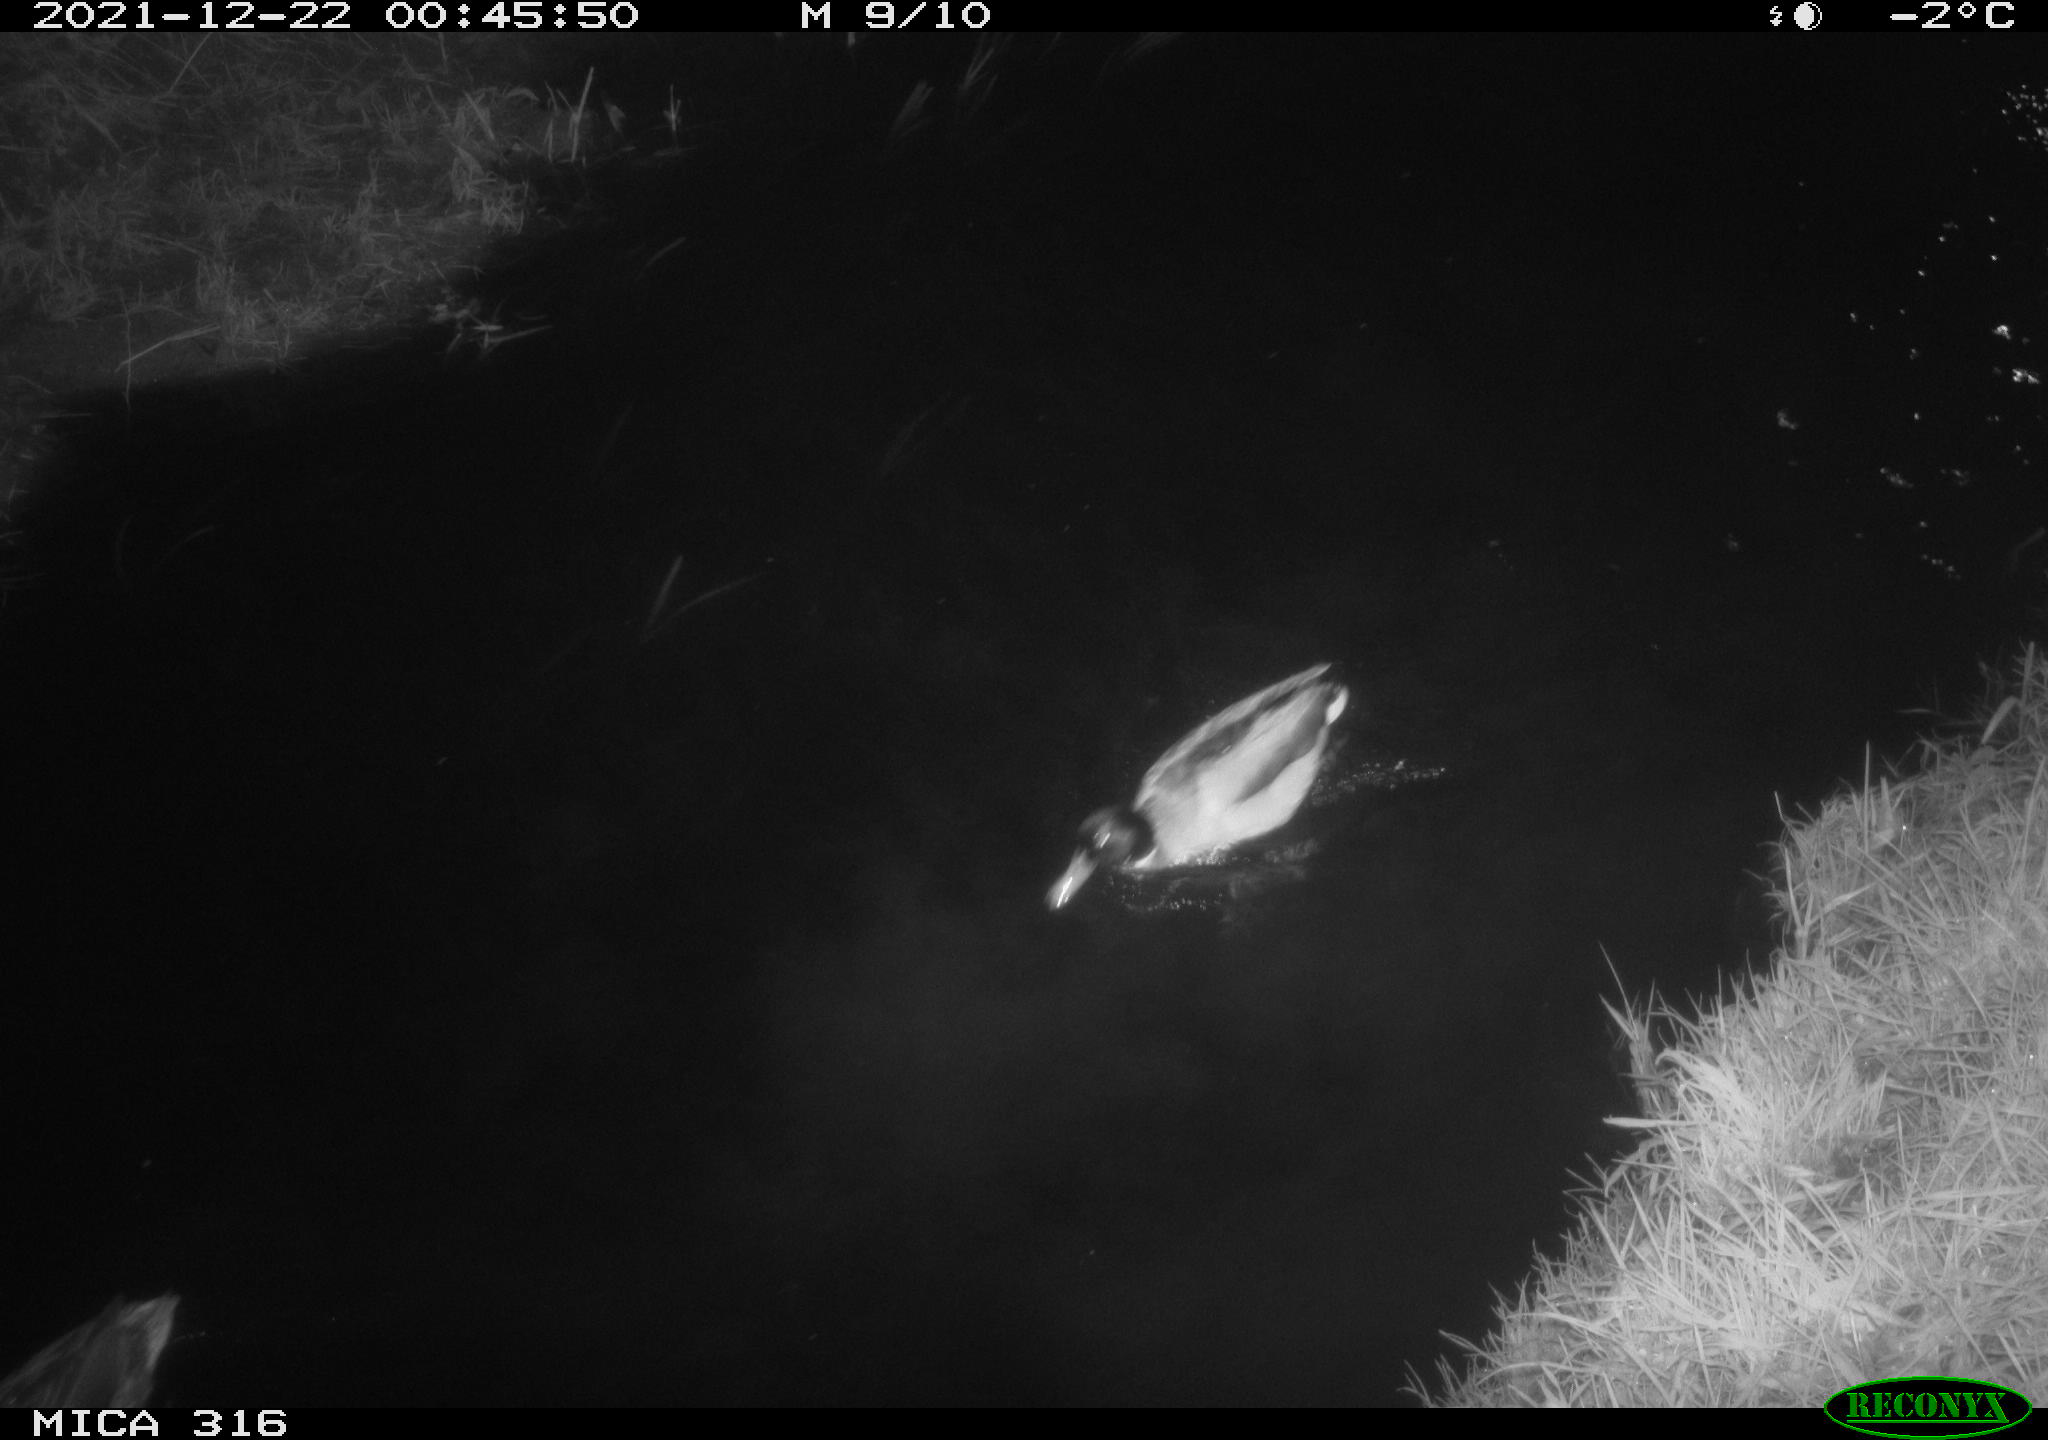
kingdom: Animalia
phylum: Chordata
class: Aves
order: Anseriformes
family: Anatidae
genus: Anas
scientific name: Anas
